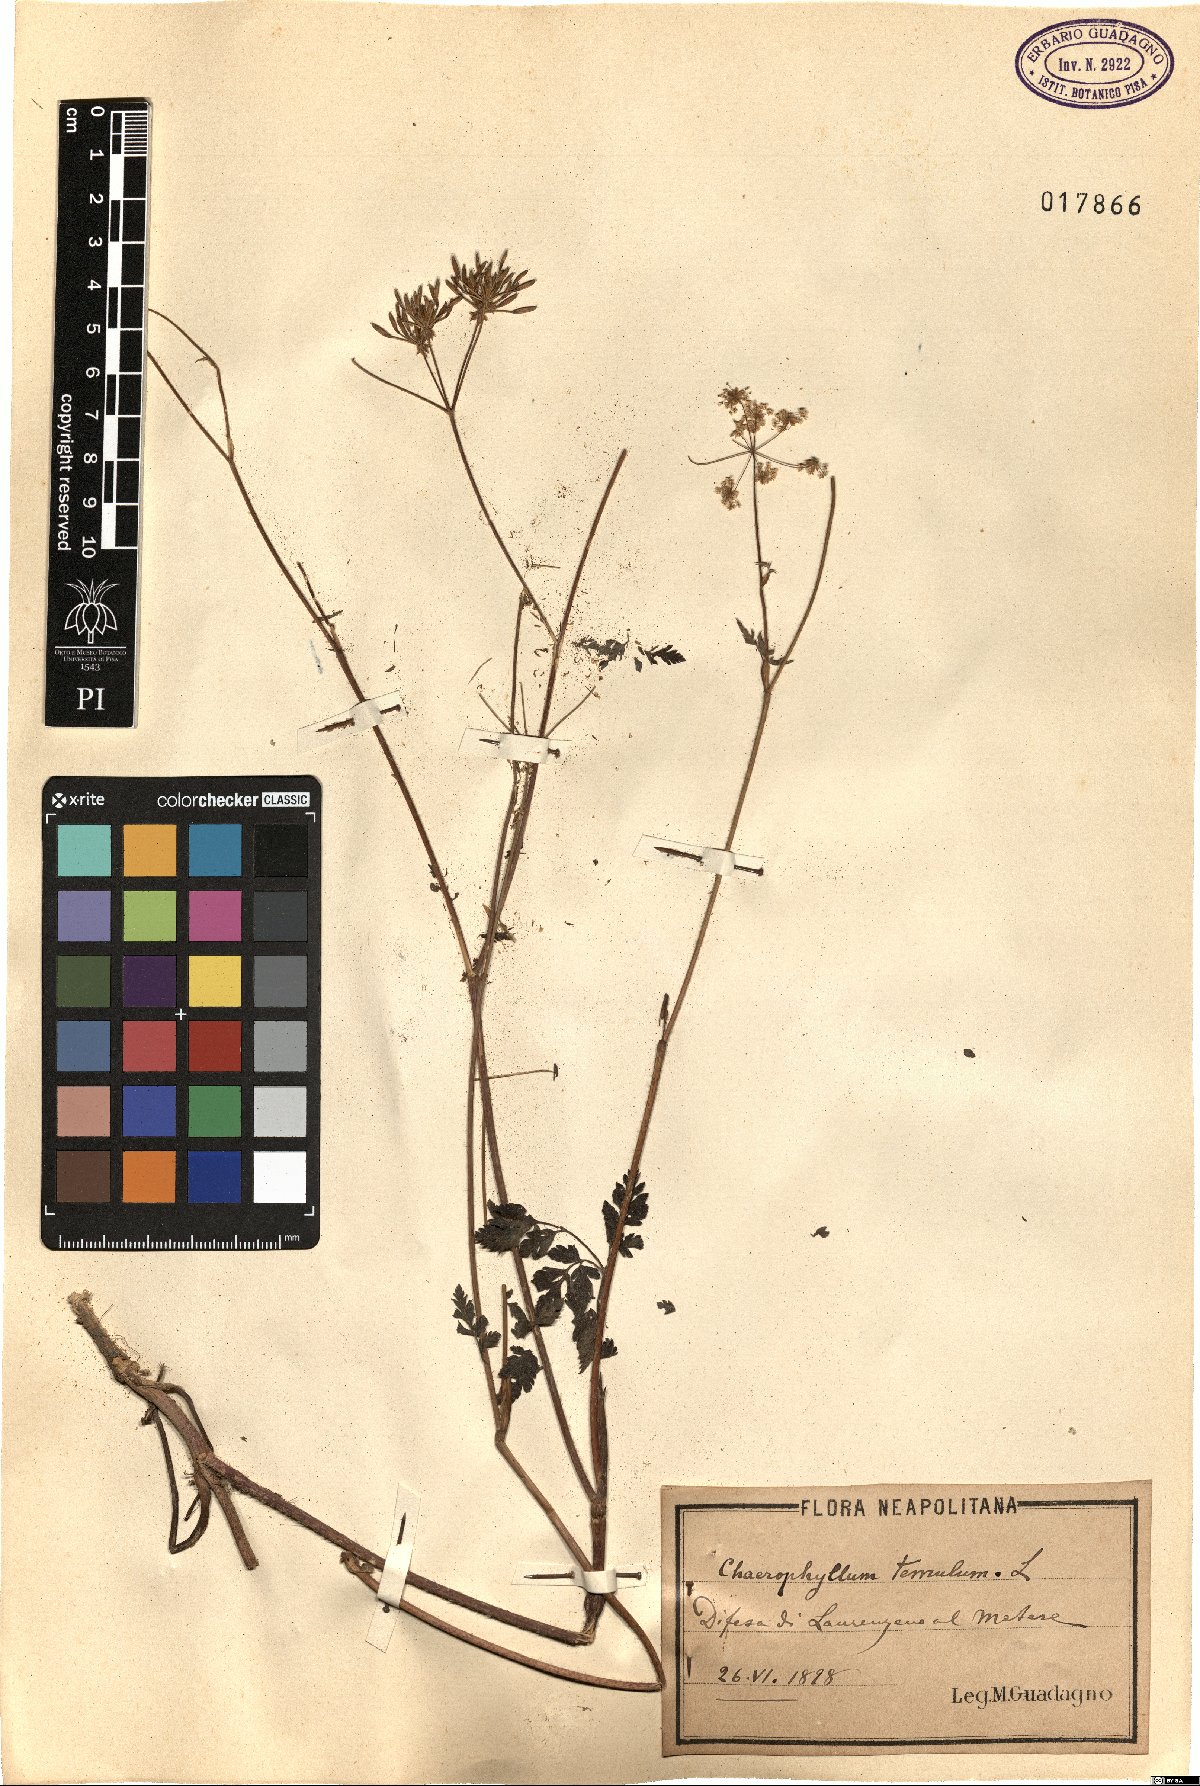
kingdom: Plantae
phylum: Tracheophyta
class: Magnoliopsida
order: Apiales
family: Apiaceae
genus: Chaerophyllum
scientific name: Chaerophyllum temulum
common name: Rough chervil
